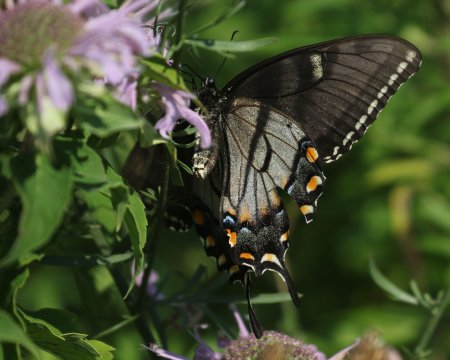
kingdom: Animalia
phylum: Arthropoda
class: Insecta
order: Lepidoptera
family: Papilionidae
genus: Pterourus
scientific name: Pterourus glaucus
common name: Eastern Tiger Swallowtail
